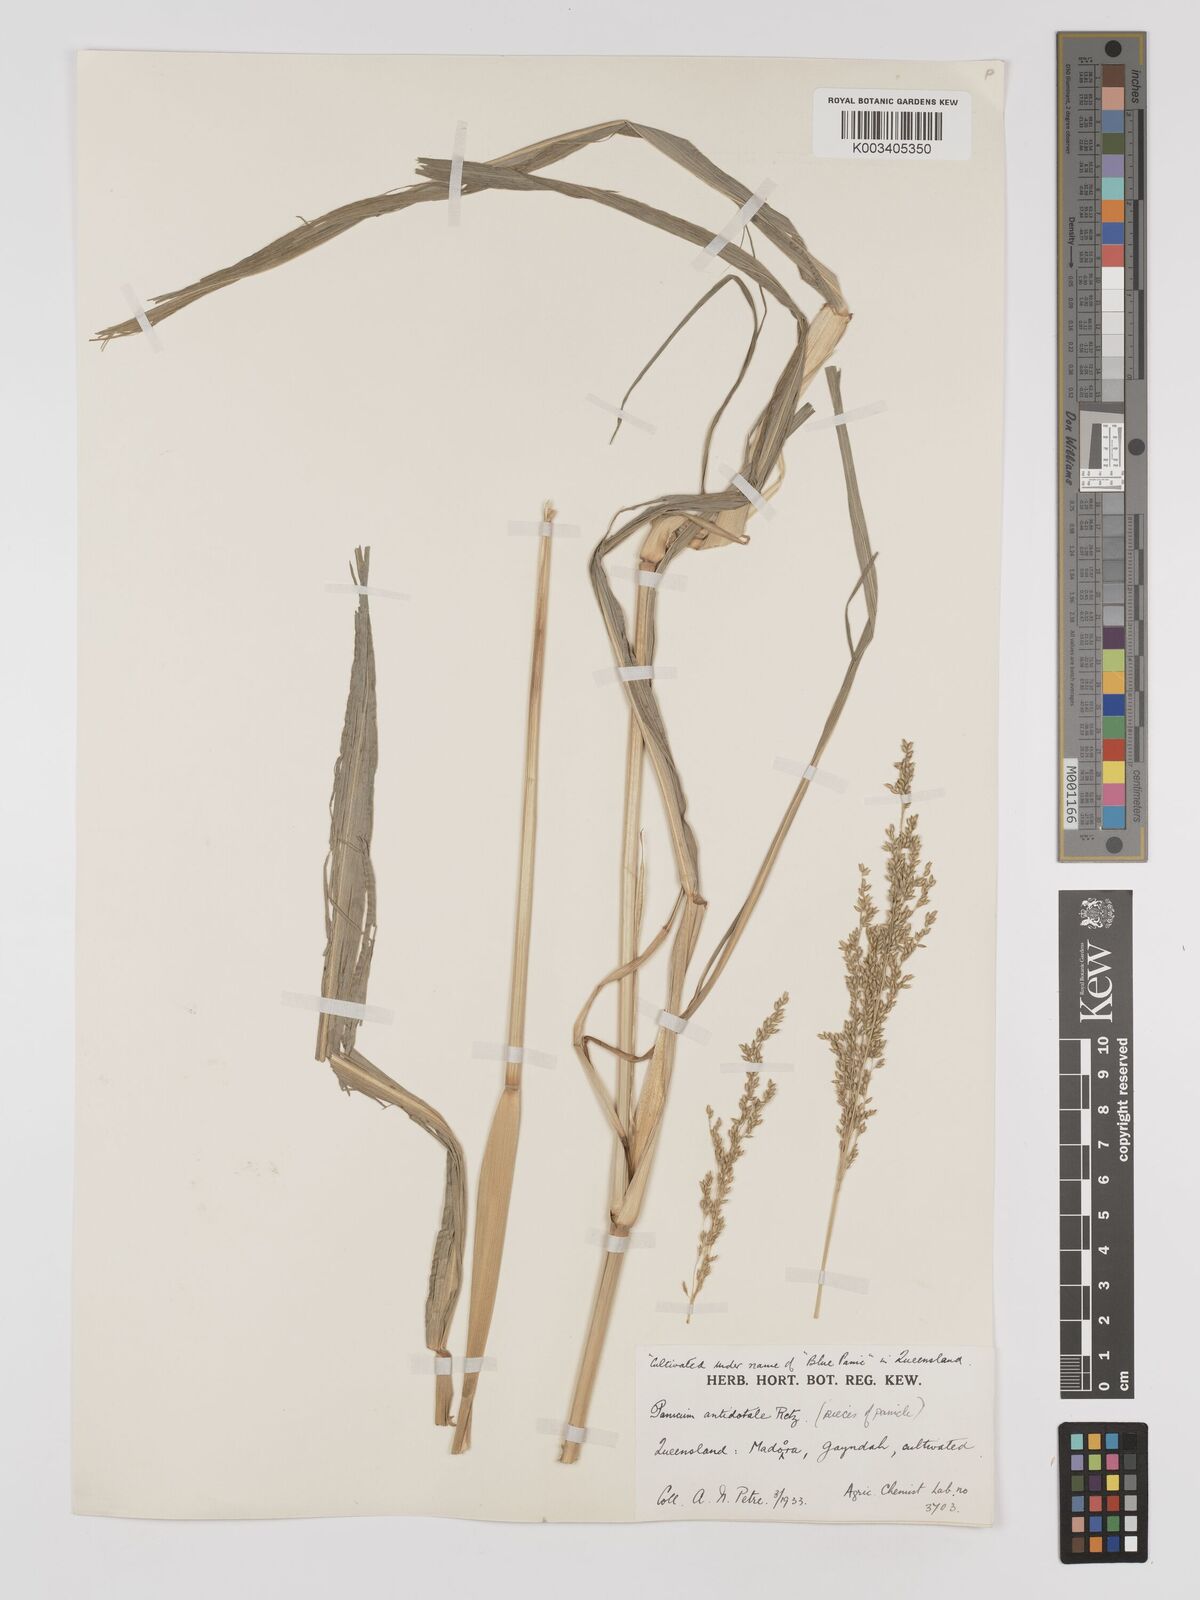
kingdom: Plantae
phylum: Tracheophyta
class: Liliopsida
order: Poales
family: Poaceae
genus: Panicum
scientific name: Panicum antidotale
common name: Blue panicum
